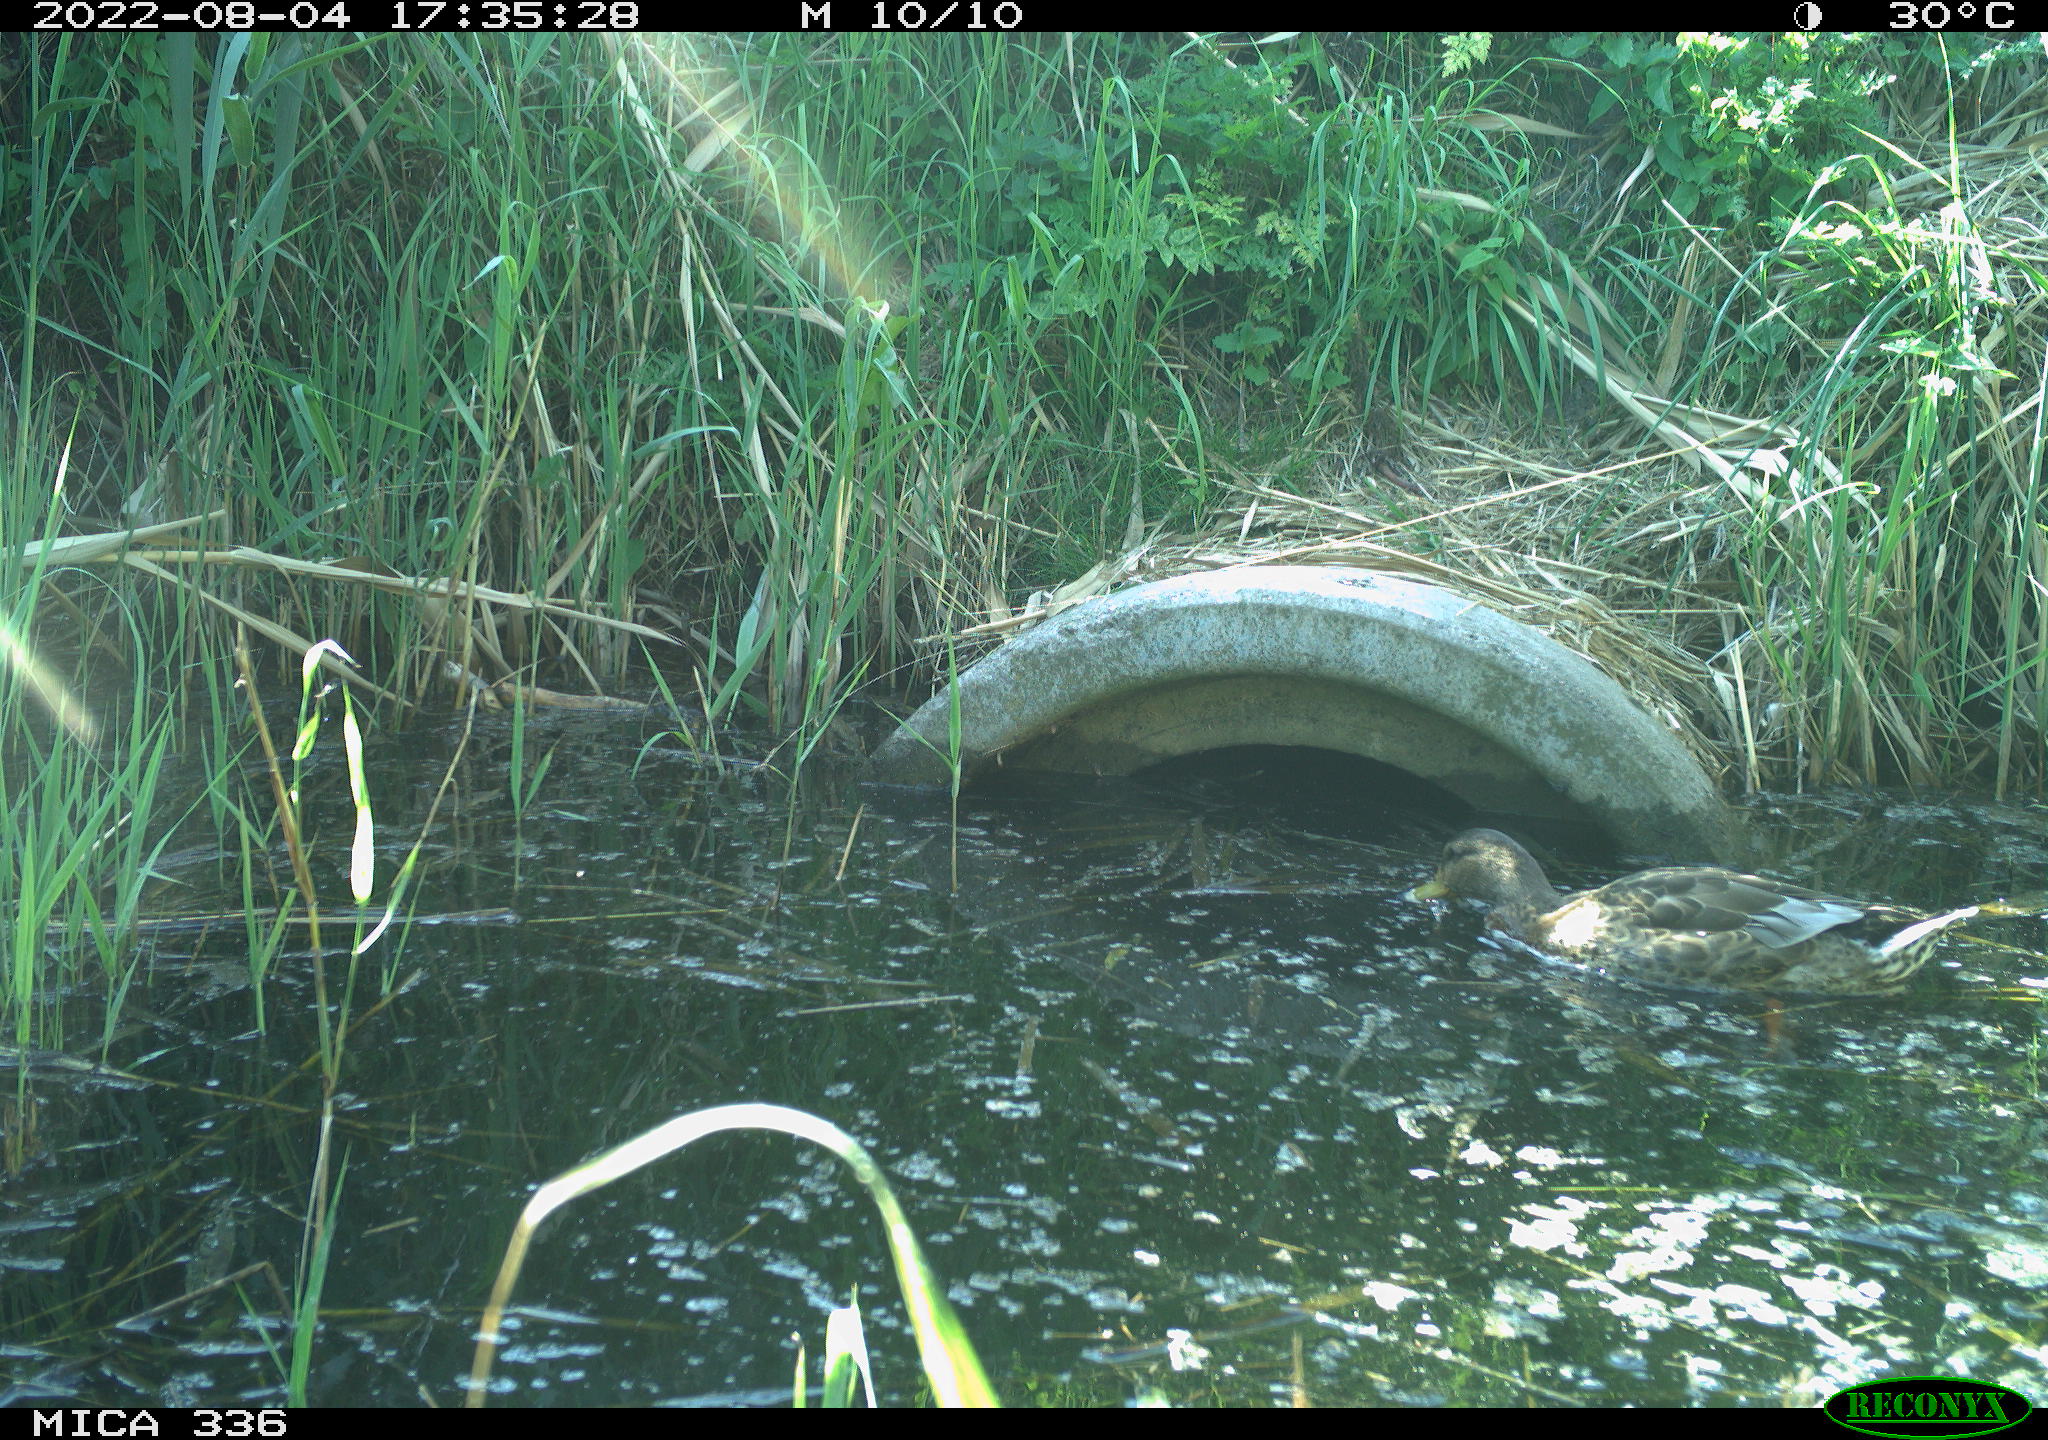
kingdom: Animalia
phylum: Chordata
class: Aves
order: Anseriformes
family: Anatidae
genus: Anas
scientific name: Anas platyrhynchos
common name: Mallard
